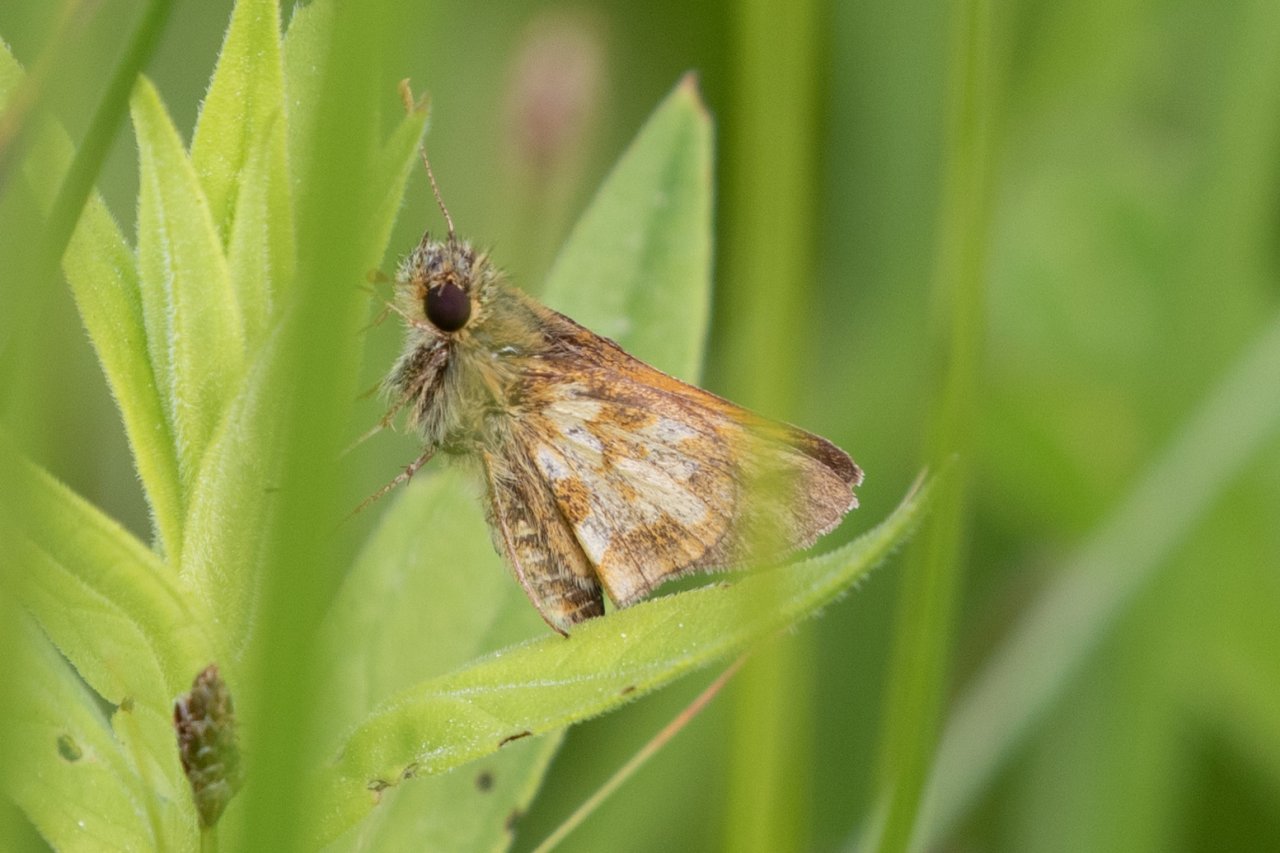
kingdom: Animalia
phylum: Arthropoda
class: Insecta
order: Lepidoptera
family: Hesperiidae
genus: Polites
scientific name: Polites coras
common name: Peck's Skipper
